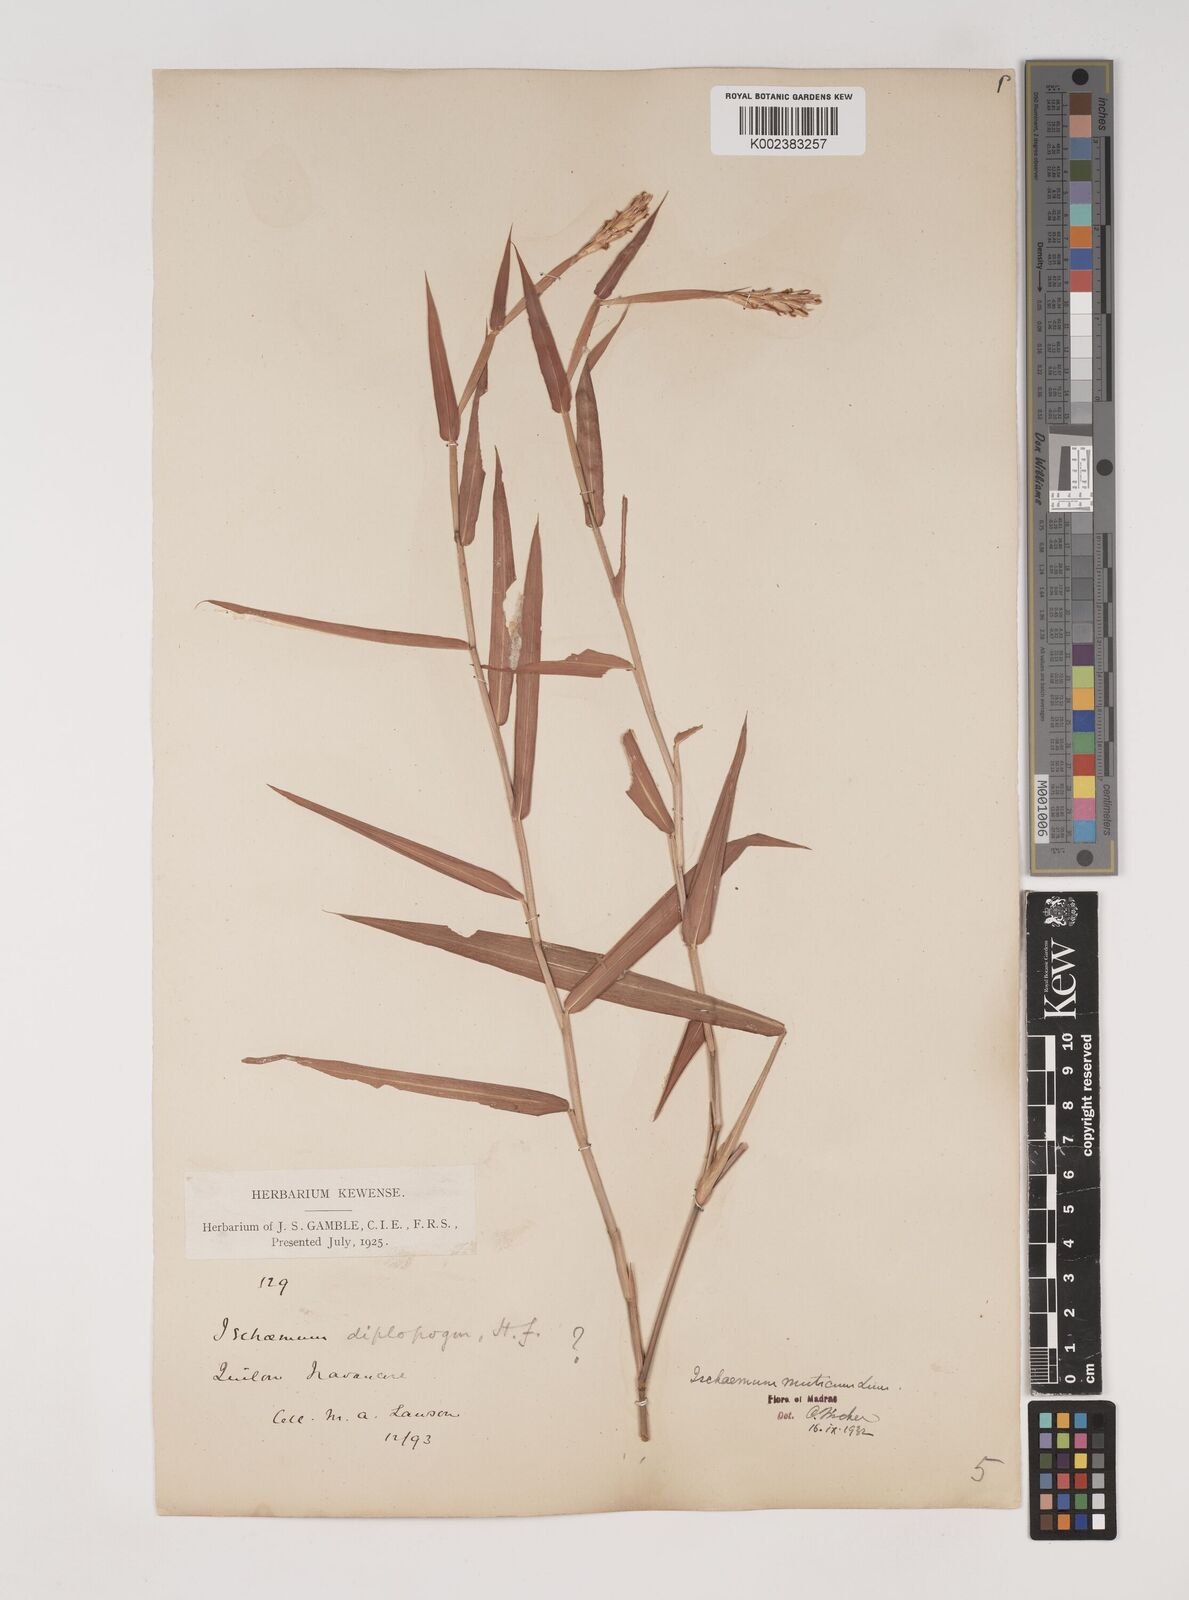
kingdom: Plantae
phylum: Tracheophyta
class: Liliopsida
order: Poales
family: Poaceae
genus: Ischaemum
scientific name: Ischaemum muticum
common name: Drought grass
